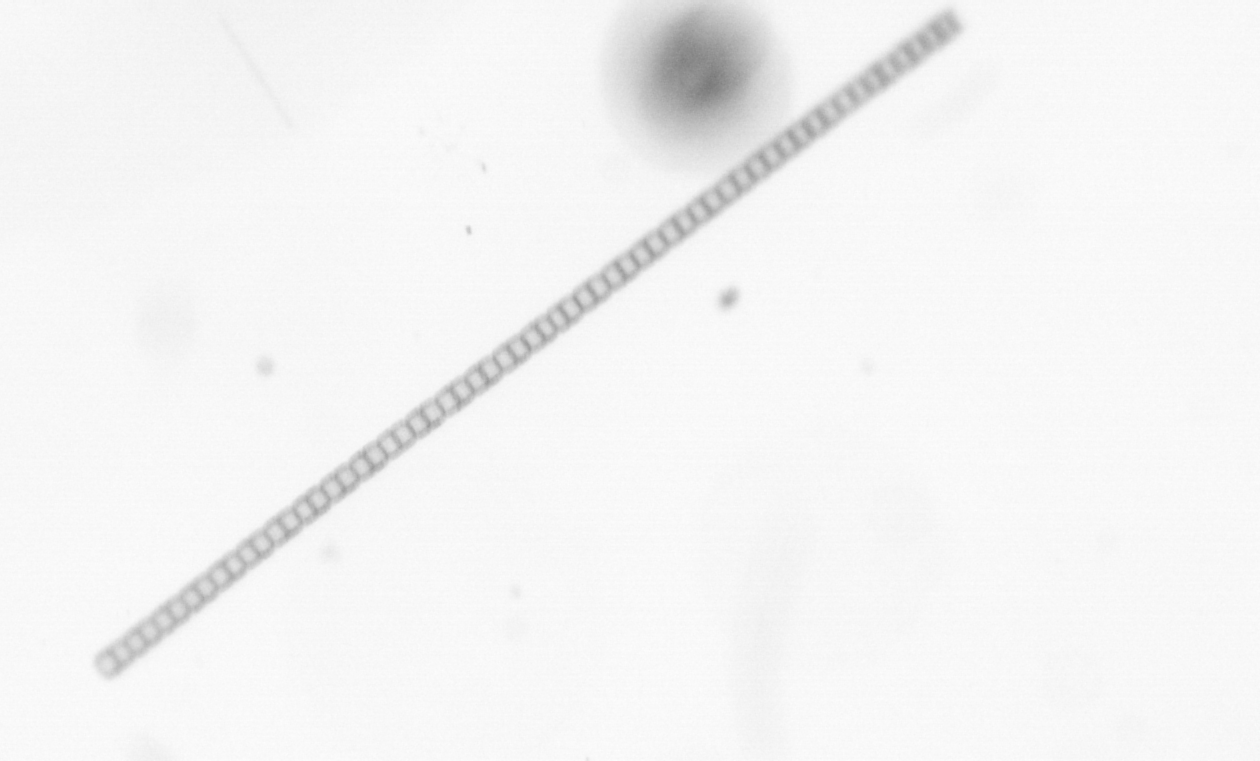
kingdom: Chromista
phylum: Ochrophyta
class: Bacillariophyceae
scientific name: Bacillariophyceae
